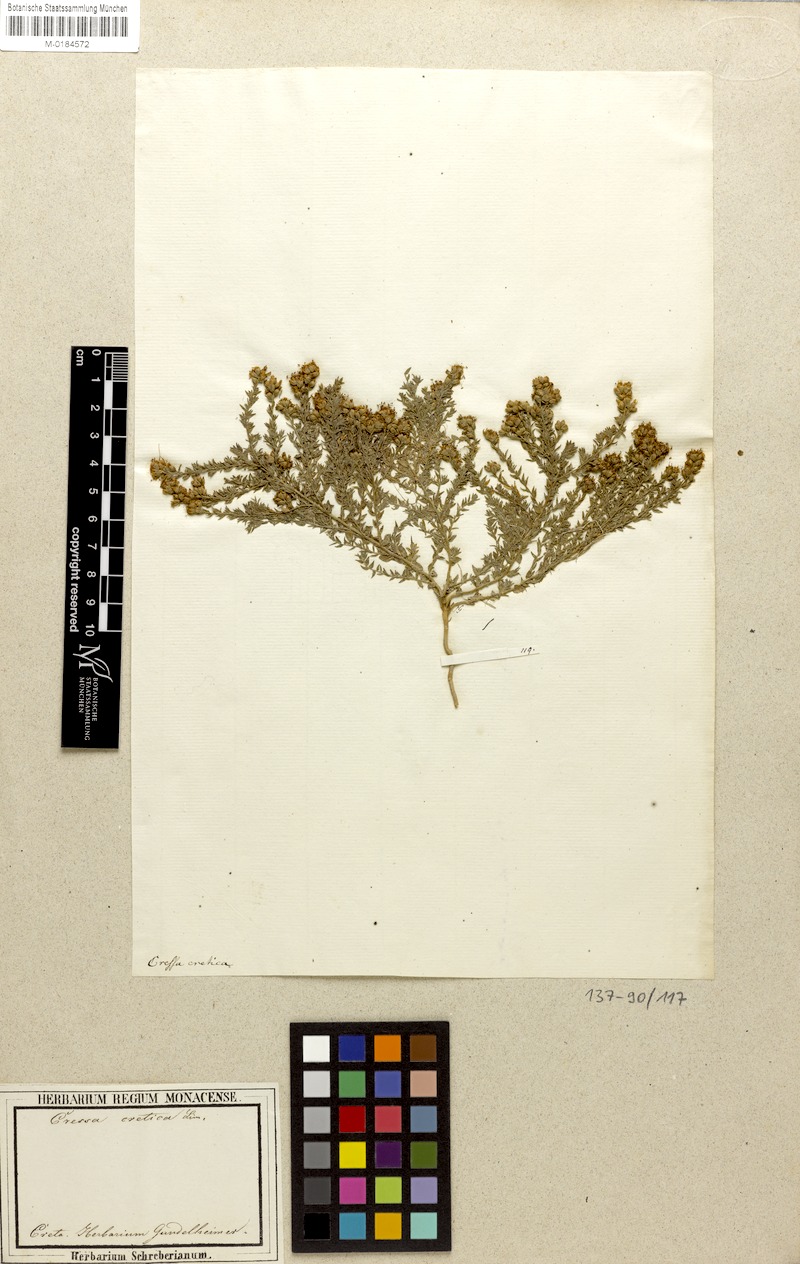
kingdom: Plantae
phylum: Tracheophyta
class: Magnoliopsida
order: Solanales
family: Convolvulaceae
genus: Cressa
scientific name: Cressa cretica
